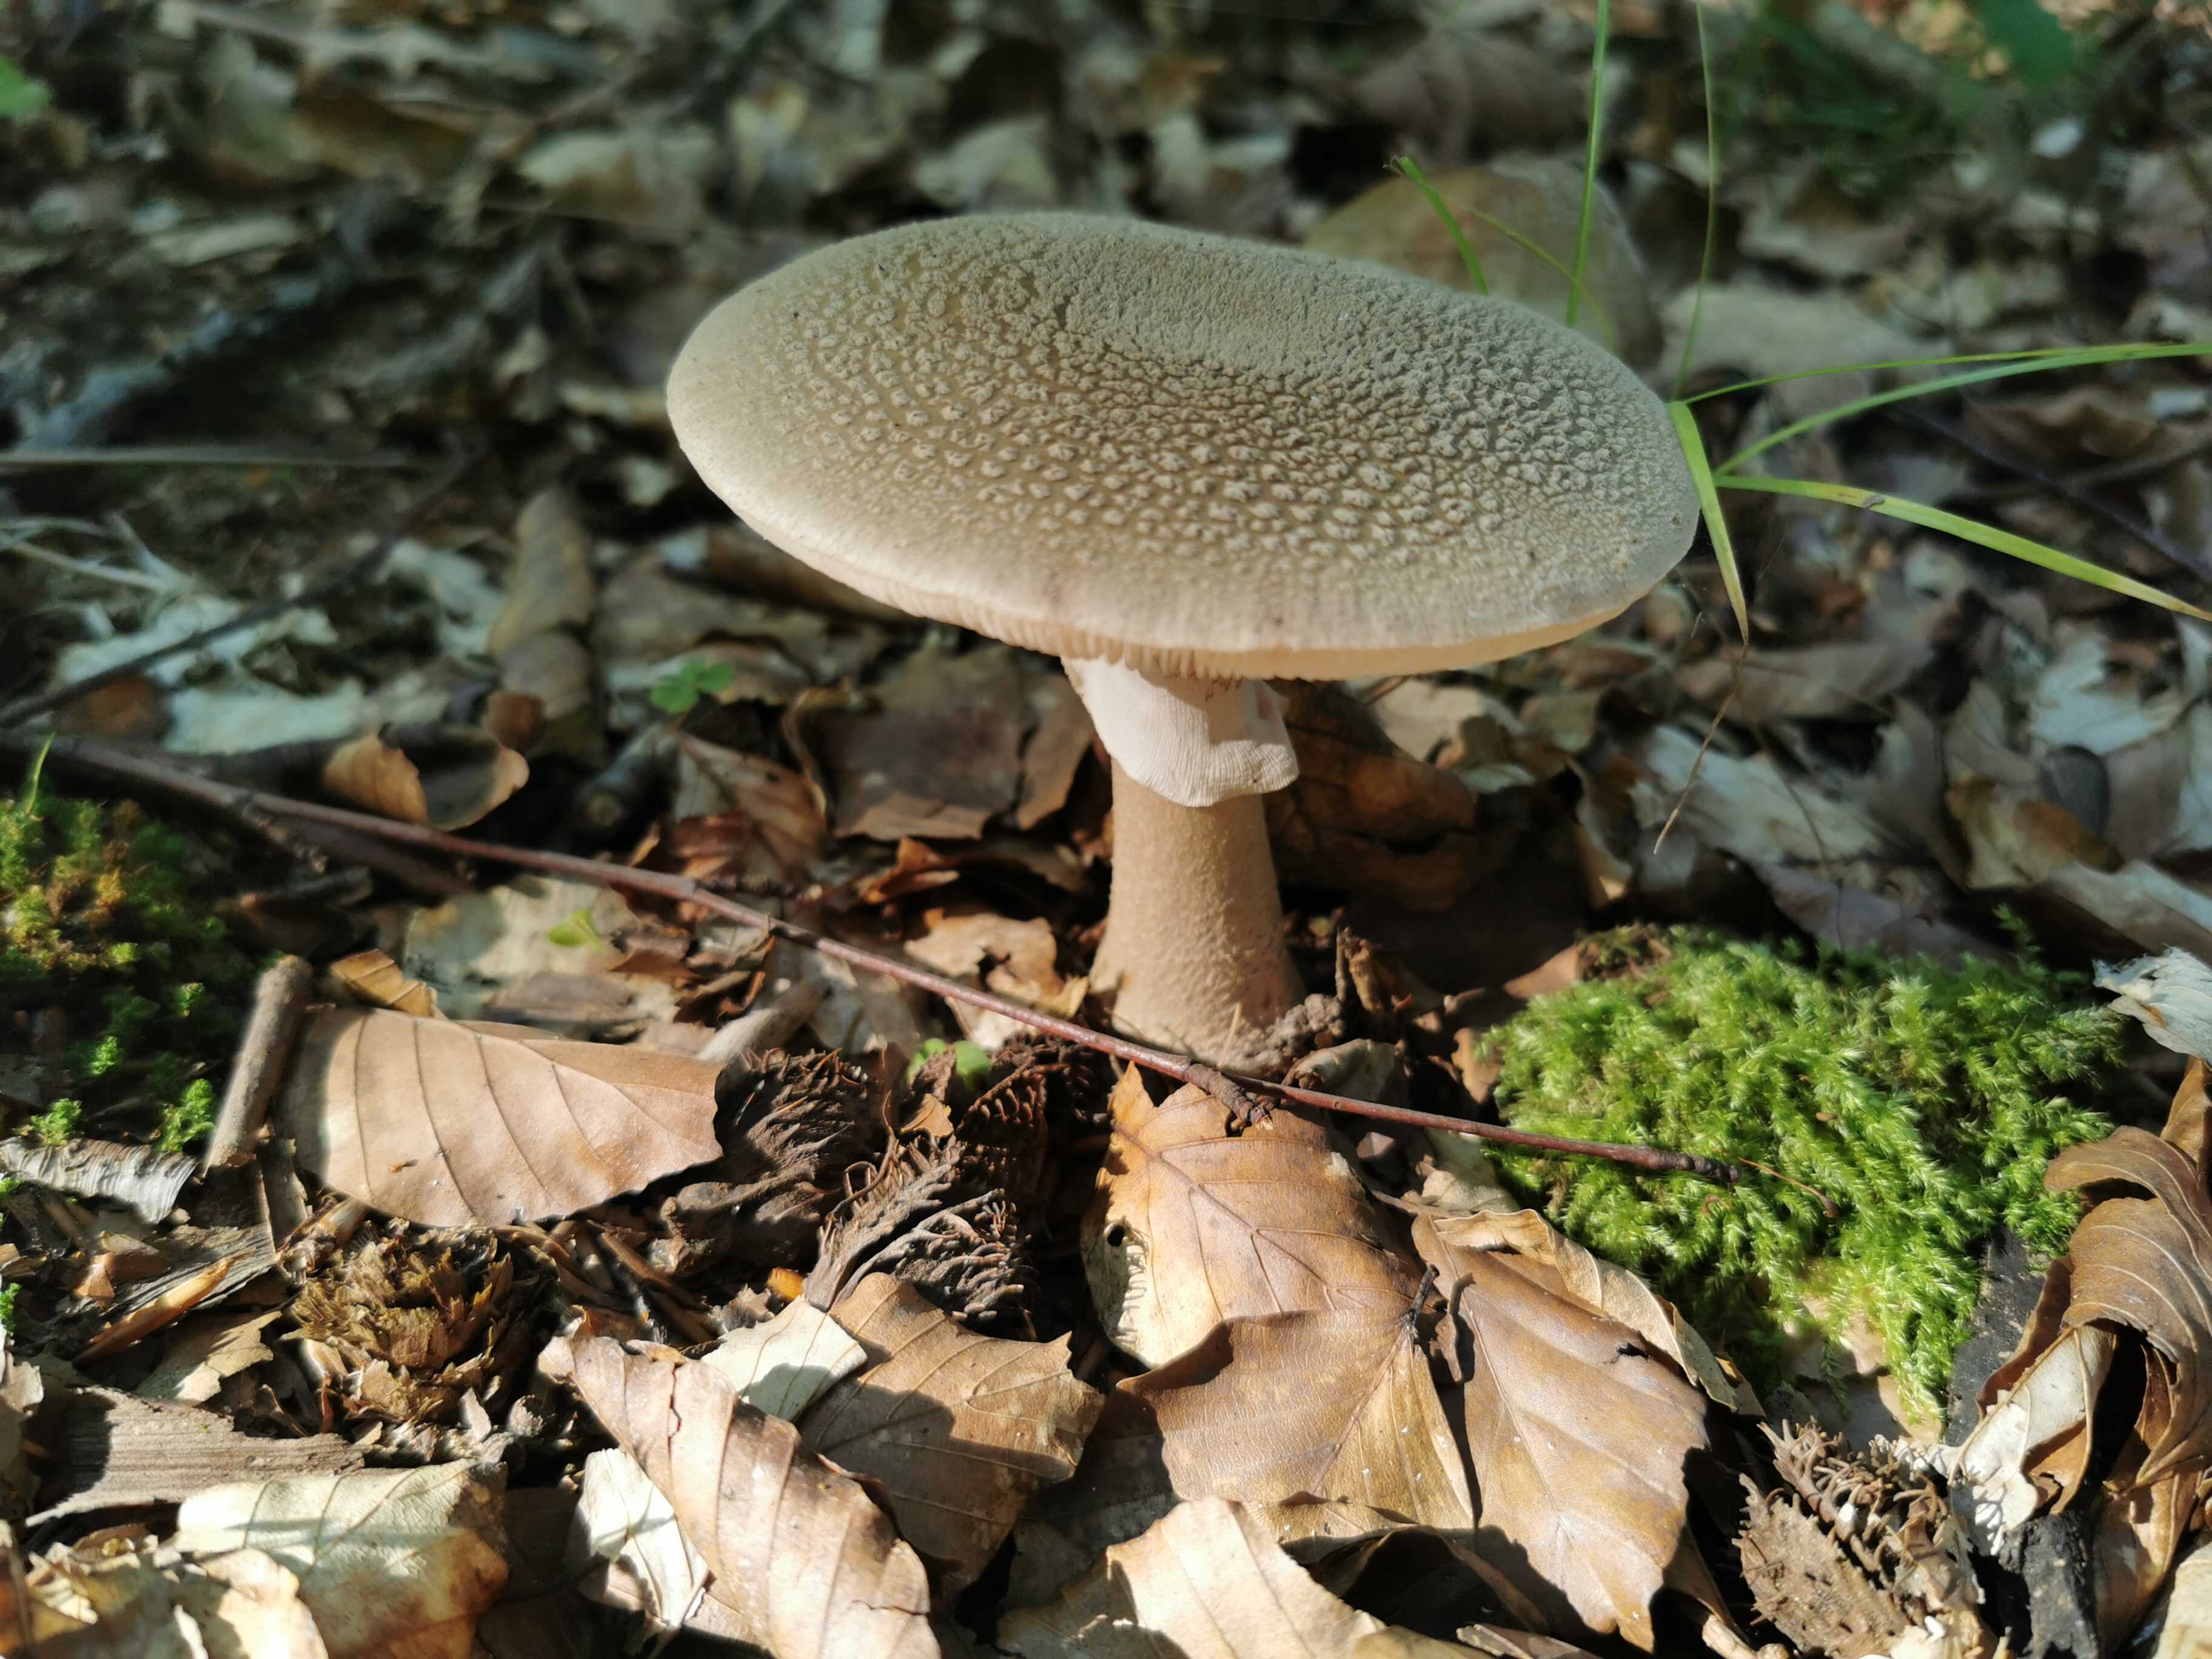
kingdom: Fungi
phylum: Basidiomycota
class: Agaricomycetes
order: Agaricales
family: Amanitaceae
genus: Amanita
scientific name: Amanita rubescens
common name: rødmende fluesvamp
